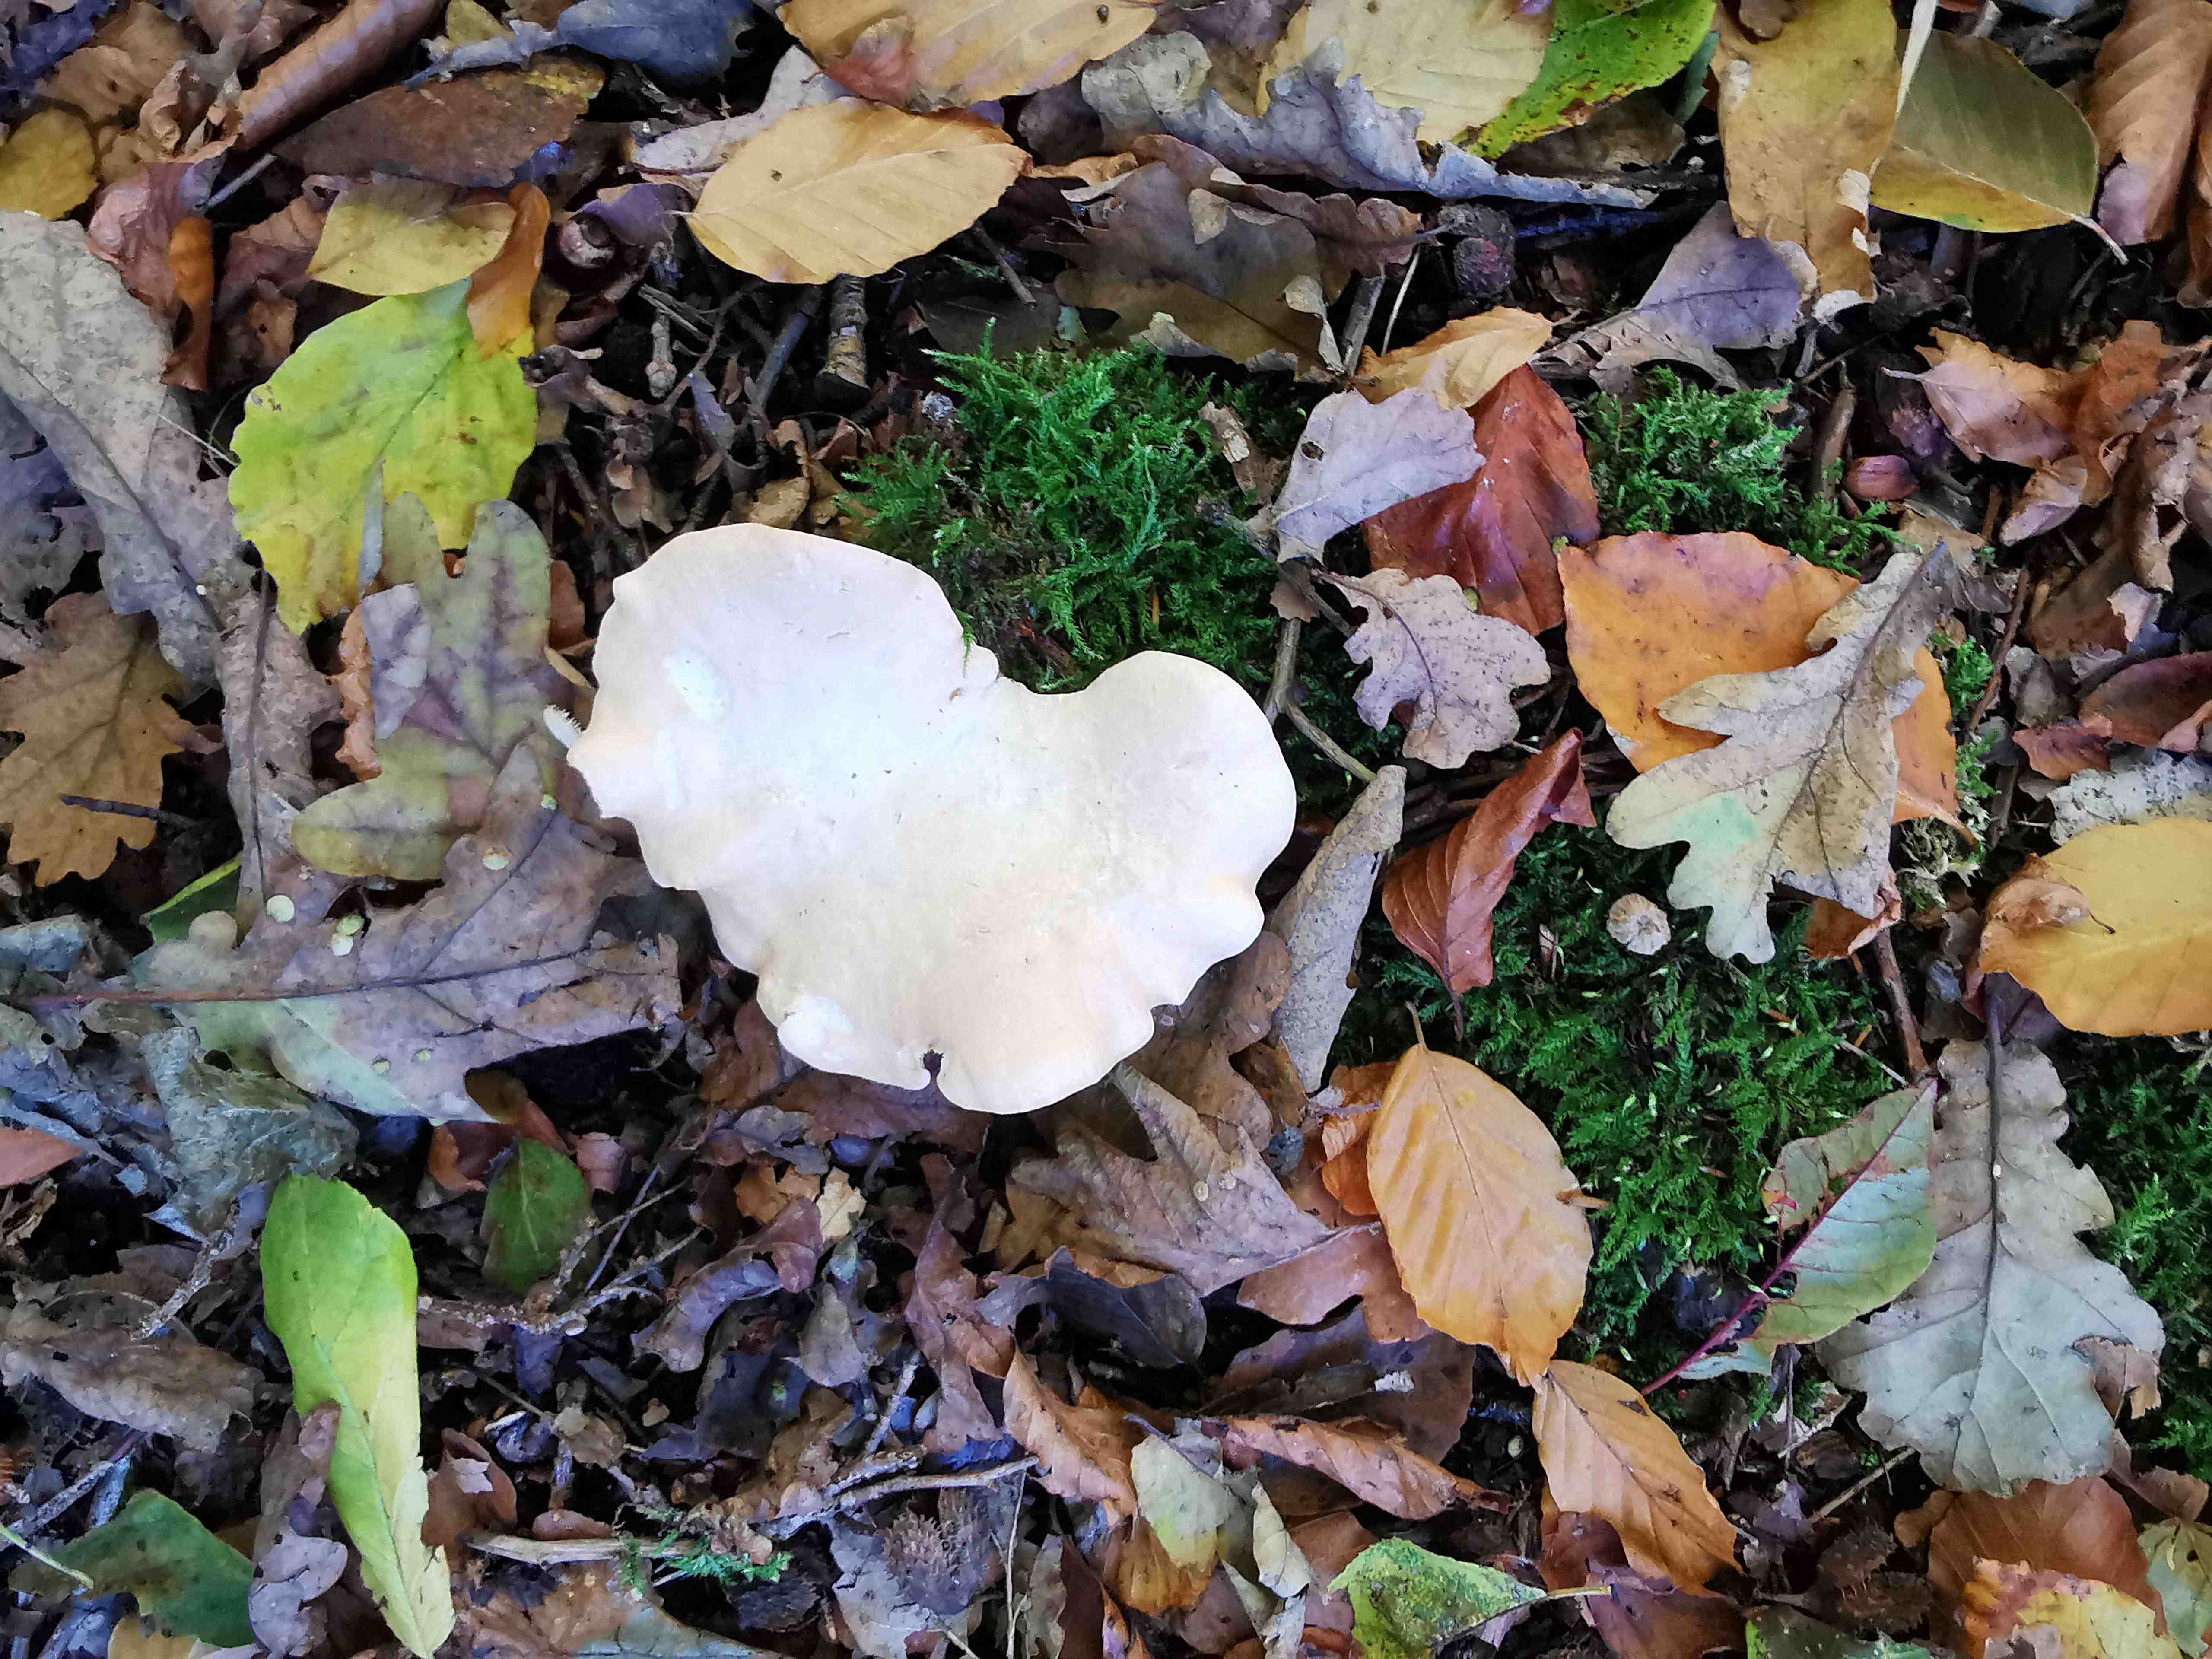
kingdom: Fungi
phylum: Basidiomycota
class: Agaricomycetes
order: Cantharellales
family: Hydnaceae
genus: Hydnum
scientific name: Hydnum repandum
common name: almindelig pigsvamp
